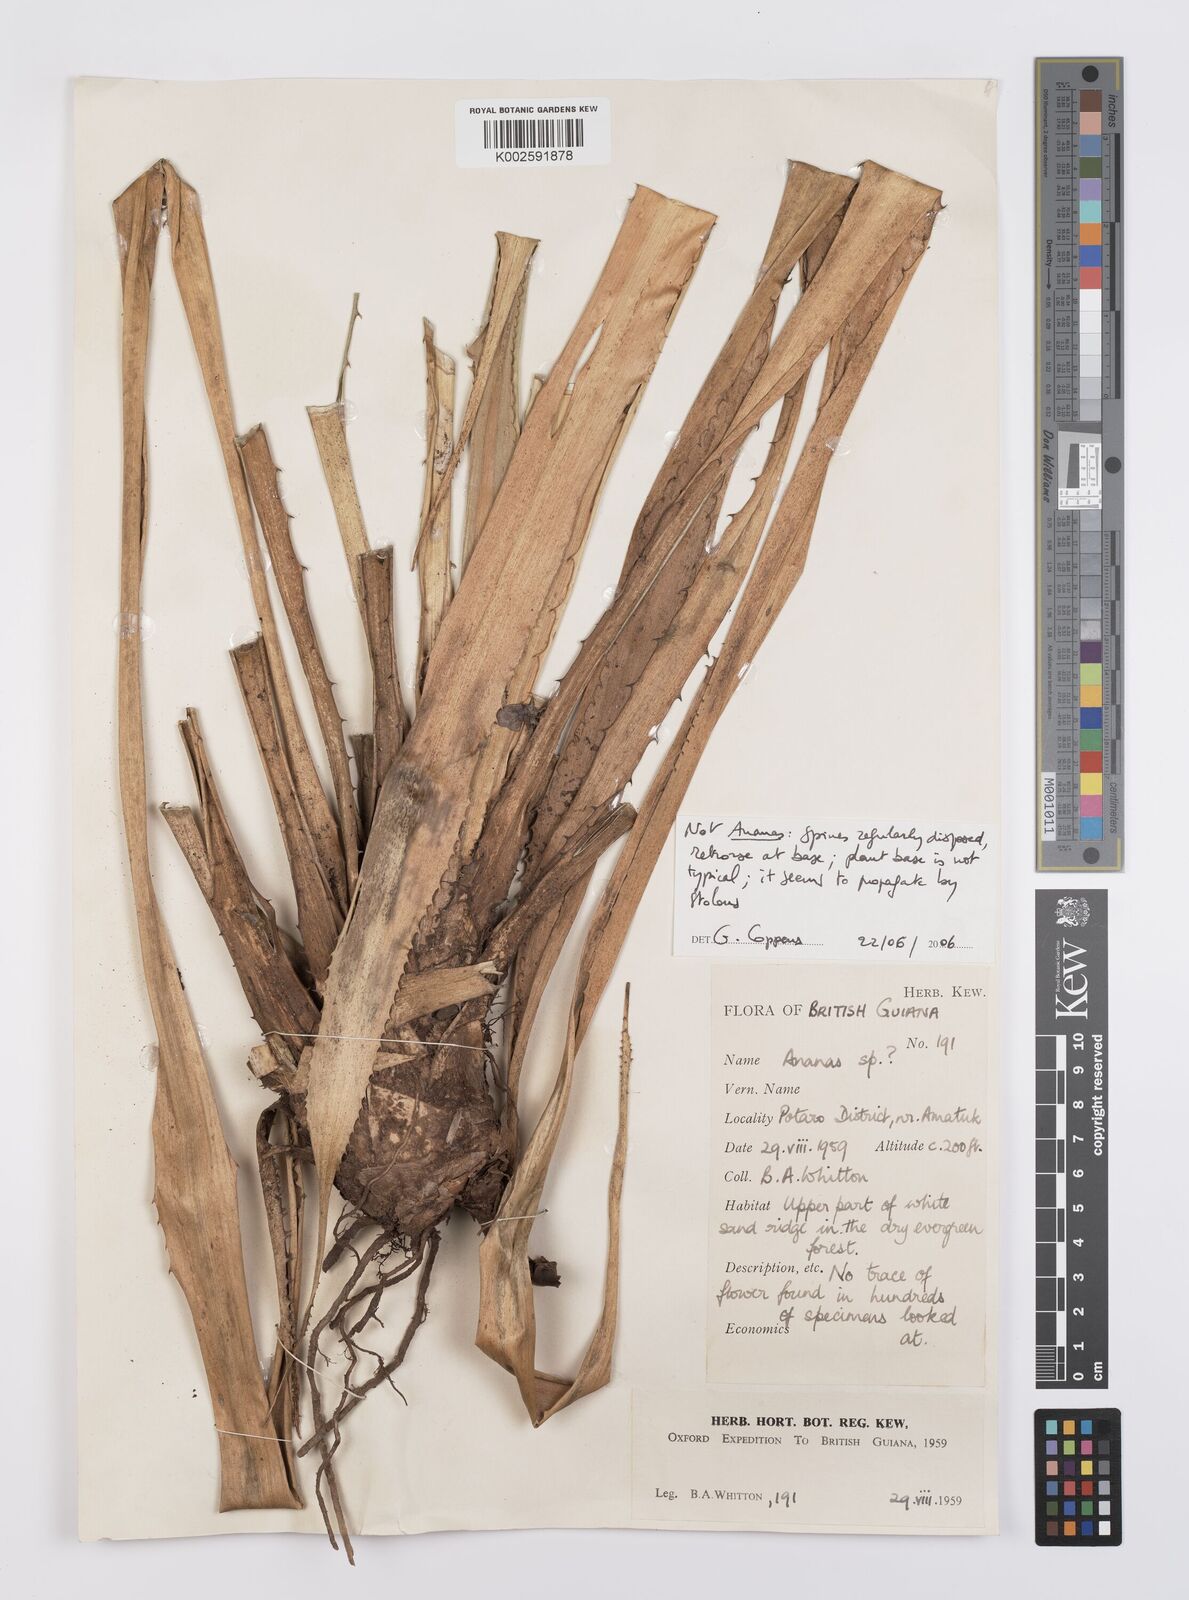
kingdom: Plantae
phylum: Tracheophyta
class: Liliopsida
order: Poales
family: Bromeliaceae
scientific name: Bromeliaceae
